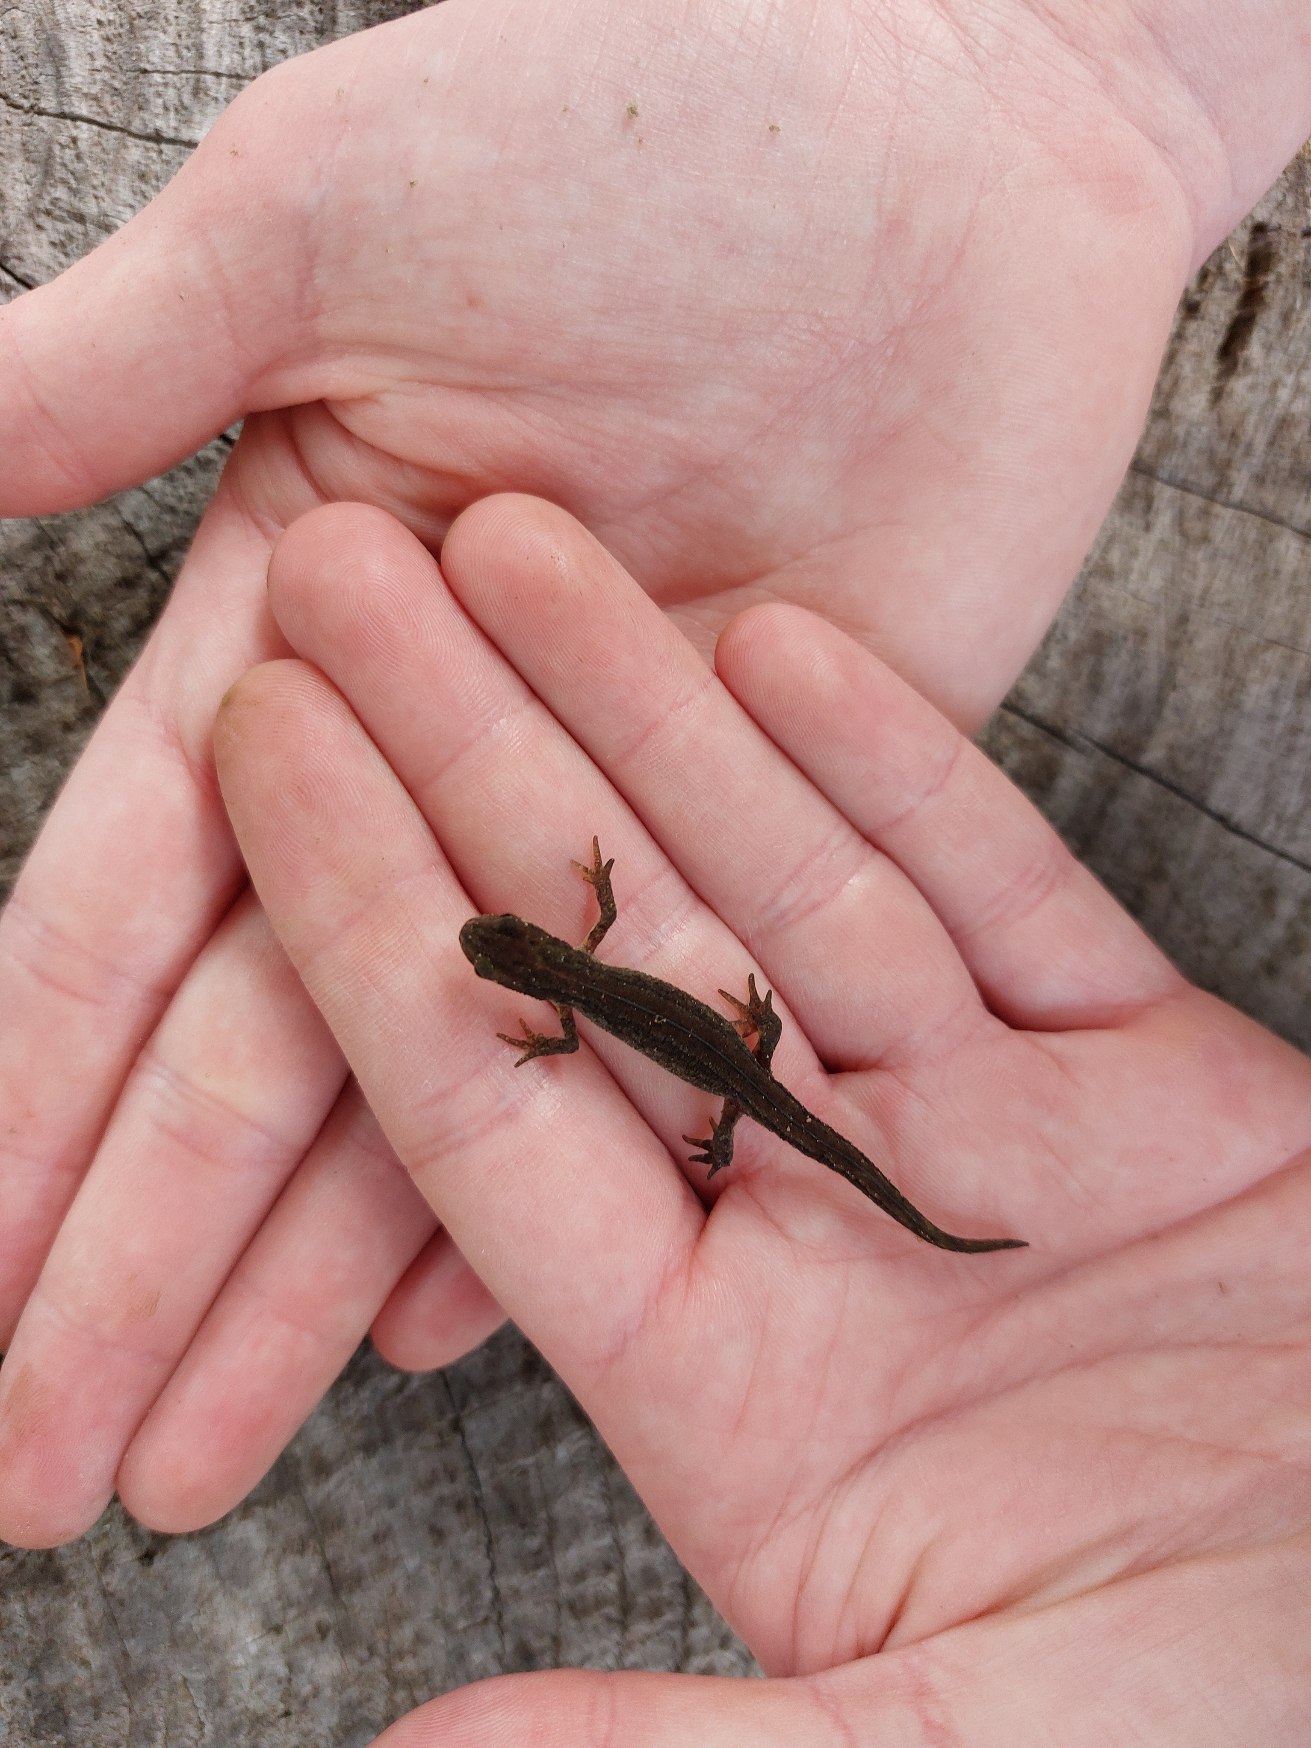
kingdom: Animalia
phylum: Chordata
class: Amphibia
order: Caudata
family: Salamandridae
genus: Lissotriton
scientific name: Lissotriton vulgaris
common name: Lille vandsalamander
